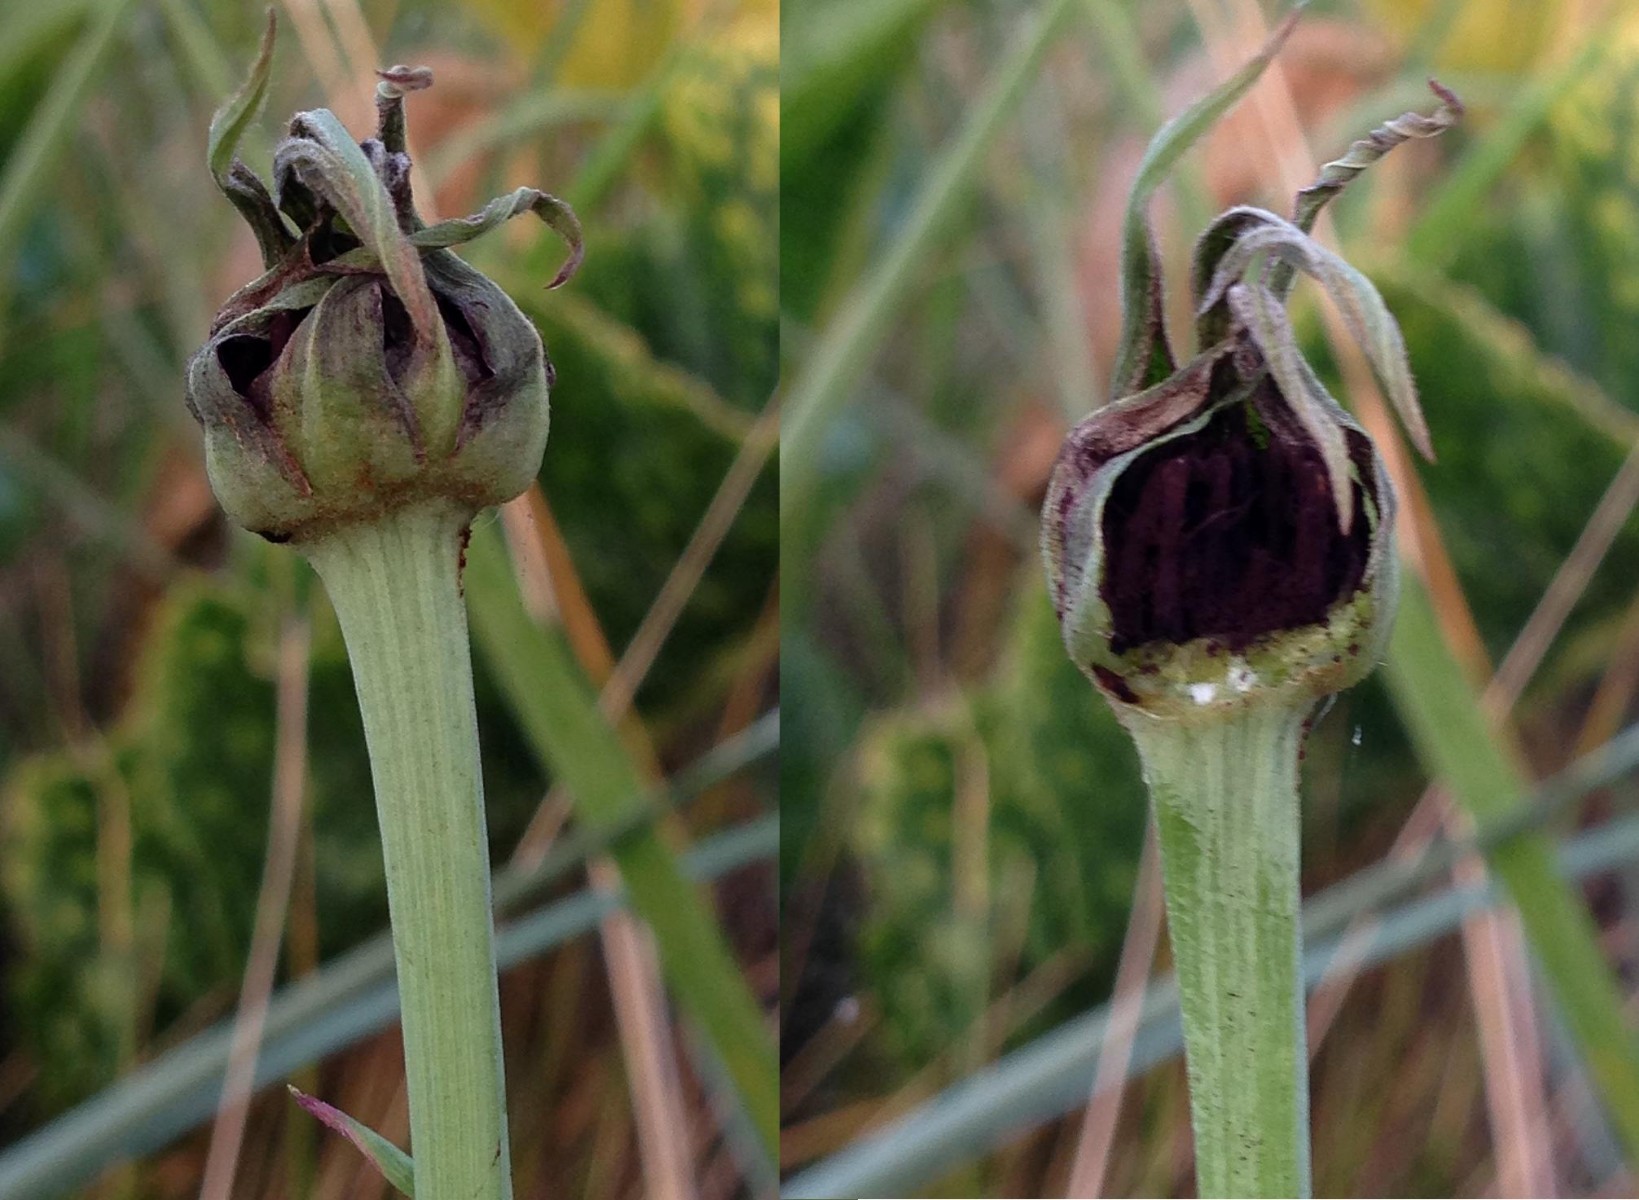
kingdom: Fungi
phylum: Basidiomycota
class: Microbotryomycetes
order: Microbotryales
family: Microbotryaceae
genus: Microbotryum
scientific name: Microbotryum tragopogonis-pratensis
